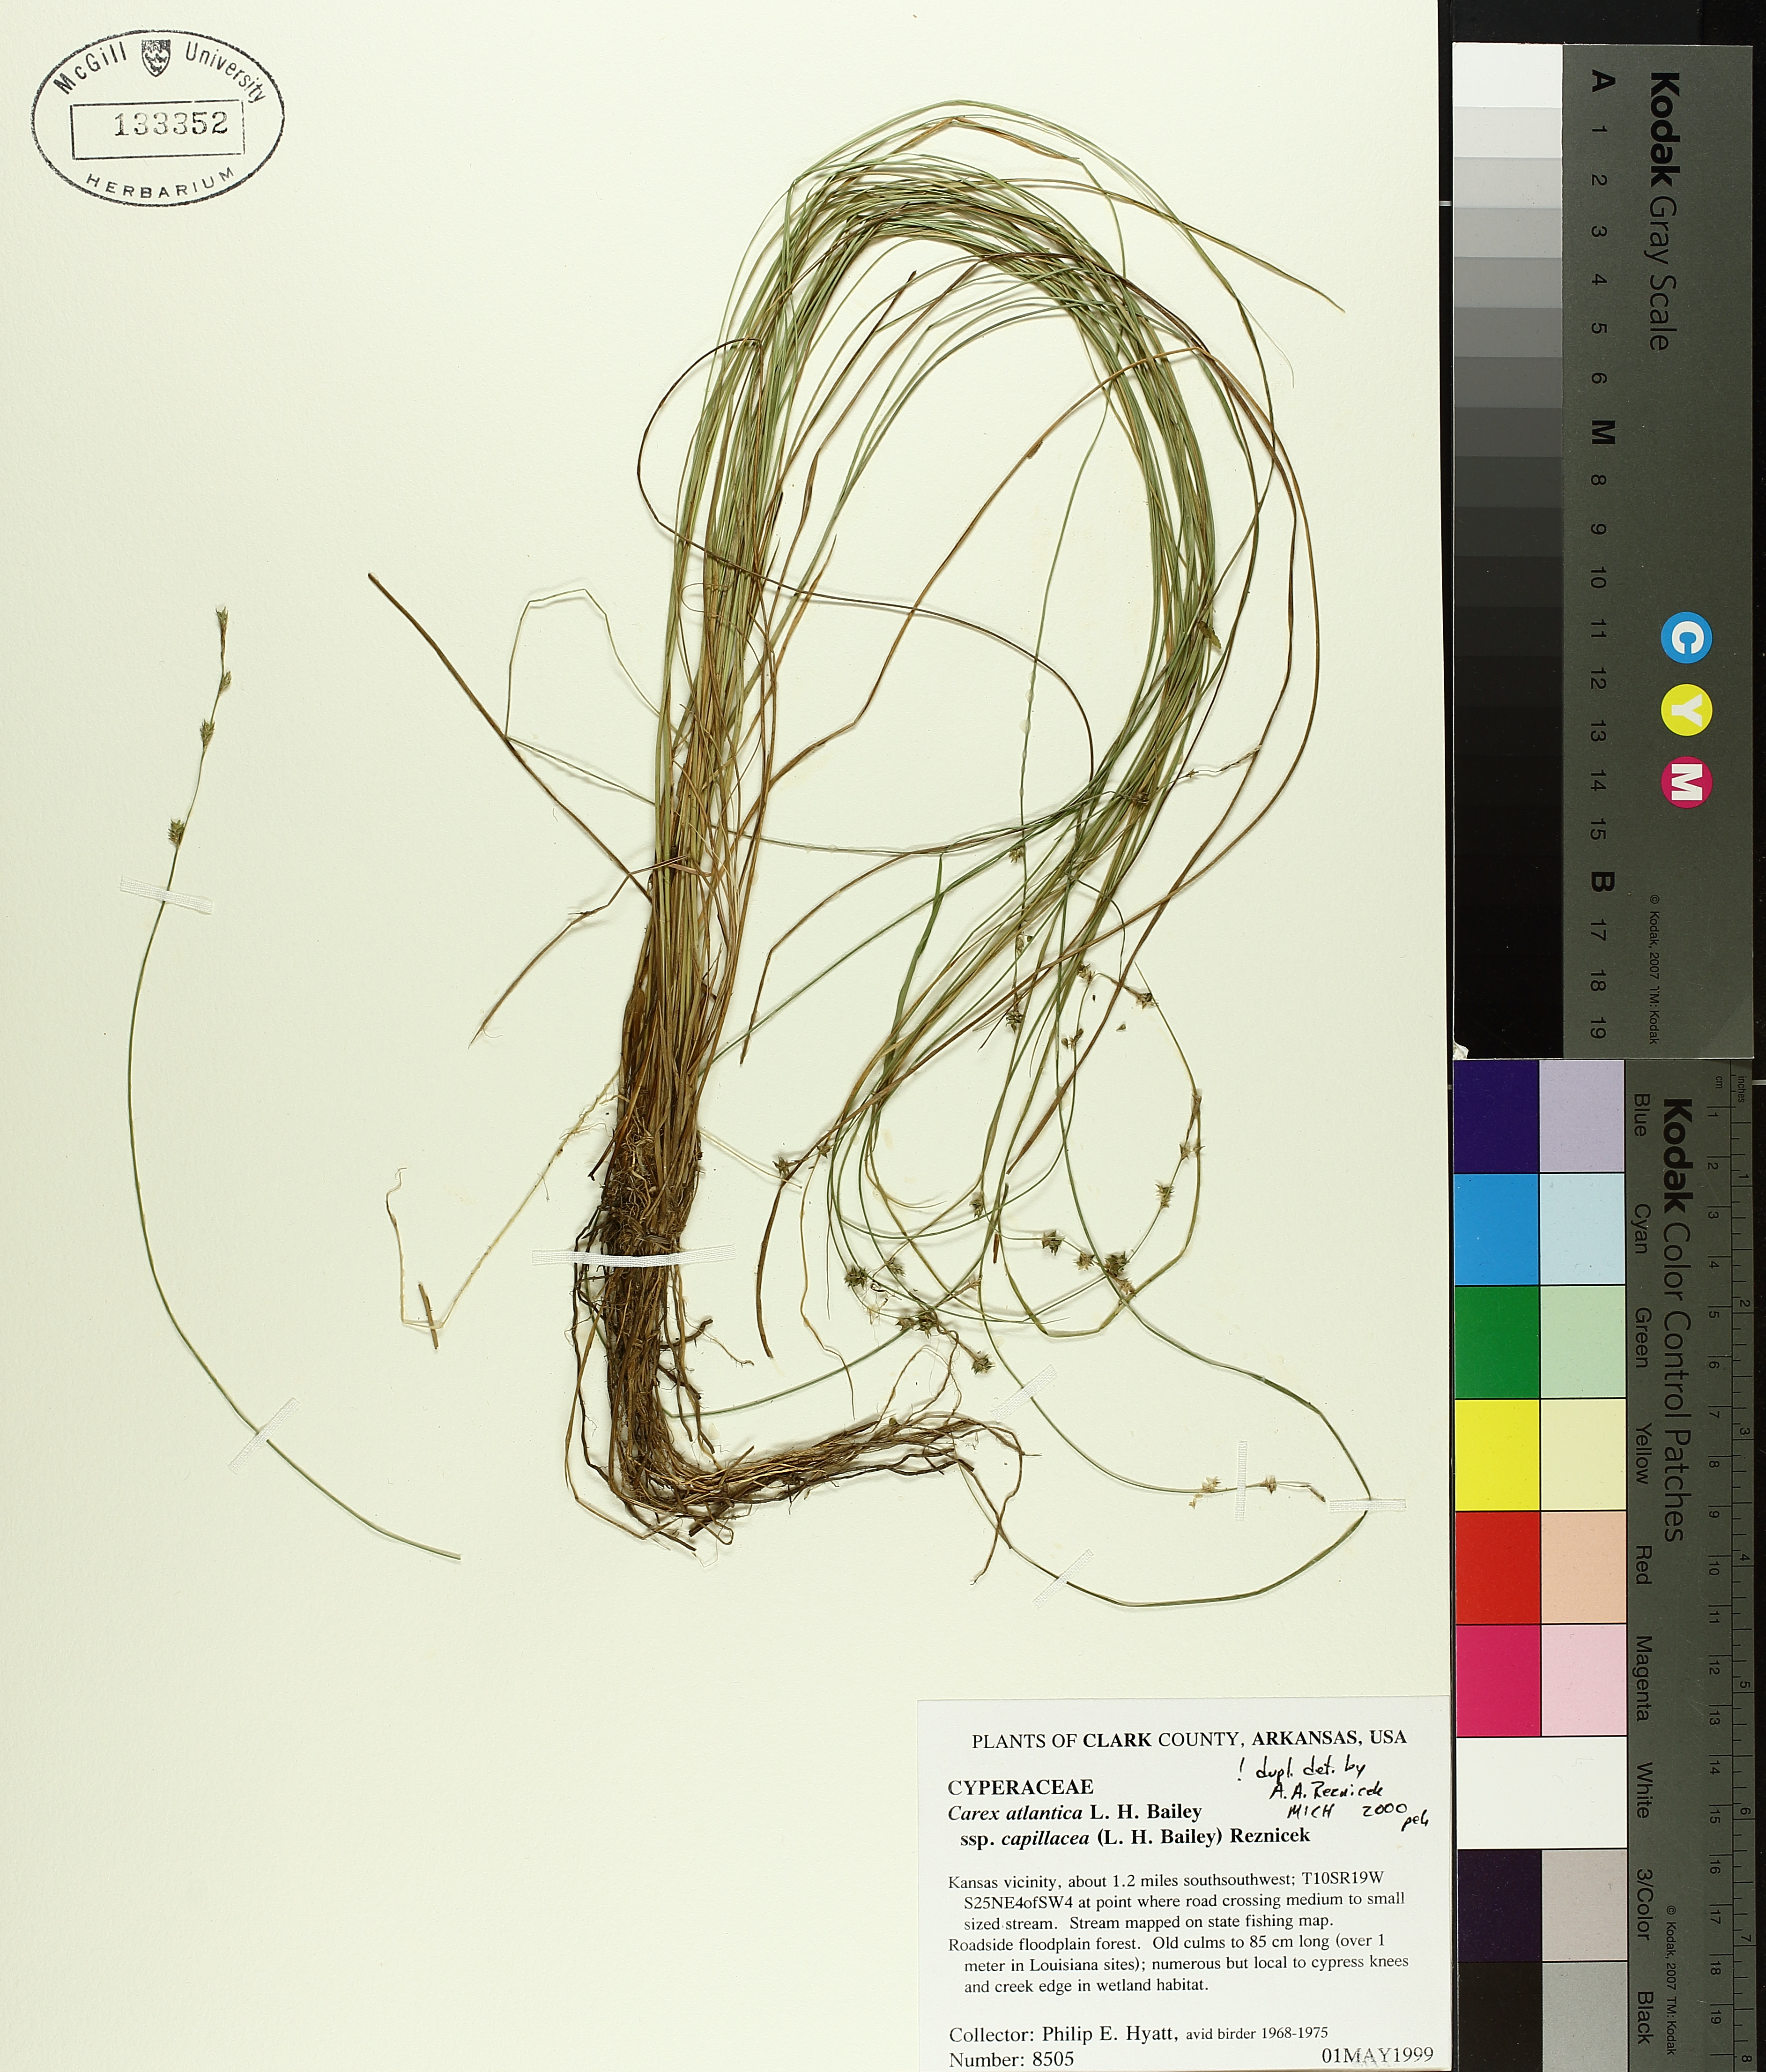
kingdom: Plantae
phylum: Tracheophyta
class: Liliopsida
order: Poales
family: Cyperaceae
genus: Carex
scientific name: Carex atlantica
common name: Atlantic sedge
